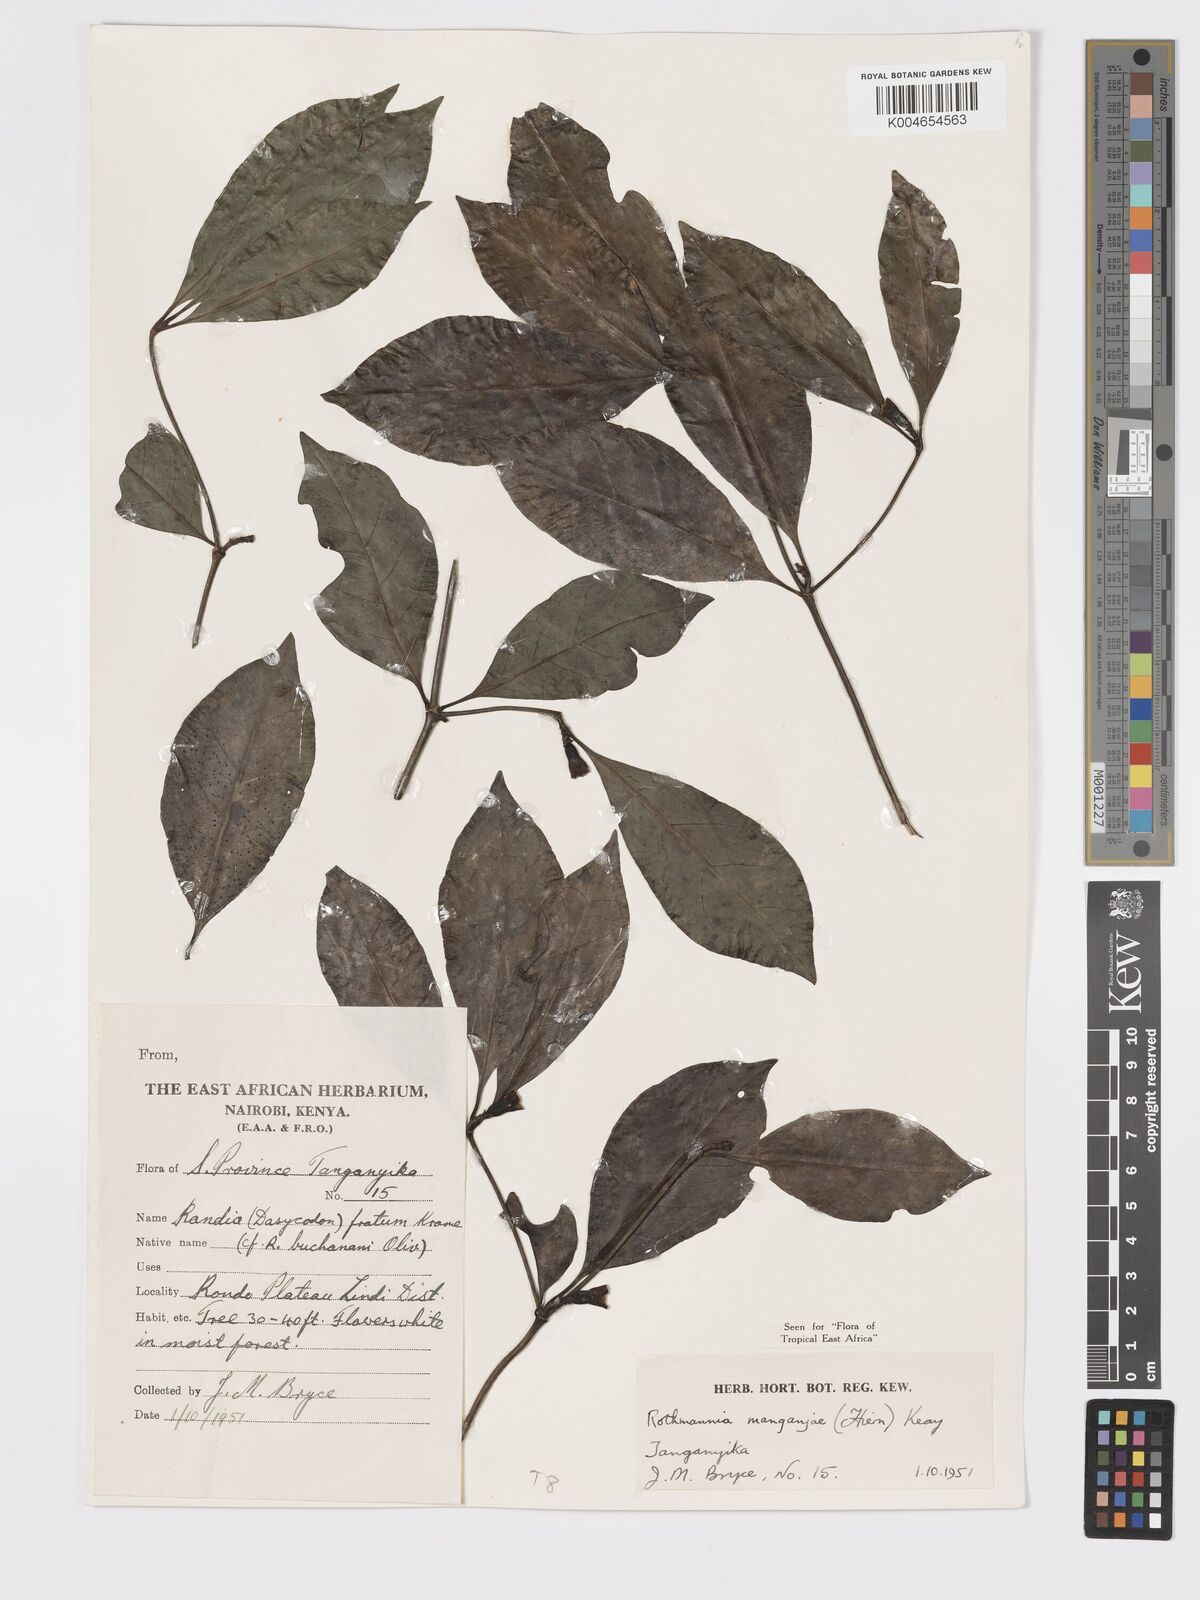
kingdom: Plantae
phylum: Tracheophyta
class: Magnoliopsida
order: Gentianales
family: Rubiaceae
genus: Rothmannia
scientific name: Rothmannia
